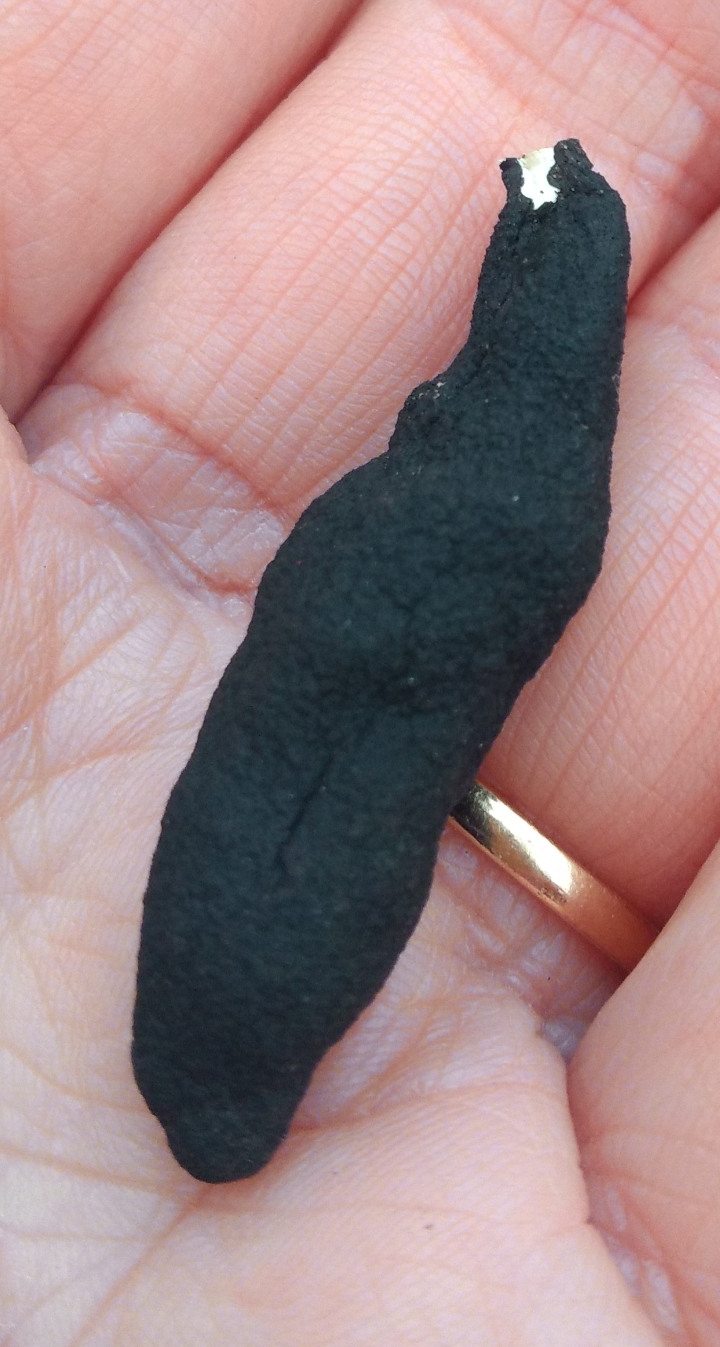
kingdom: Fungi
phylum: Ascomycota
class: Sordariomycetes
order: Xylariales
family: Xylariaceae
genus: Xylaria
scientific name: Xylaria longipes
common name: slank stødsvamp
